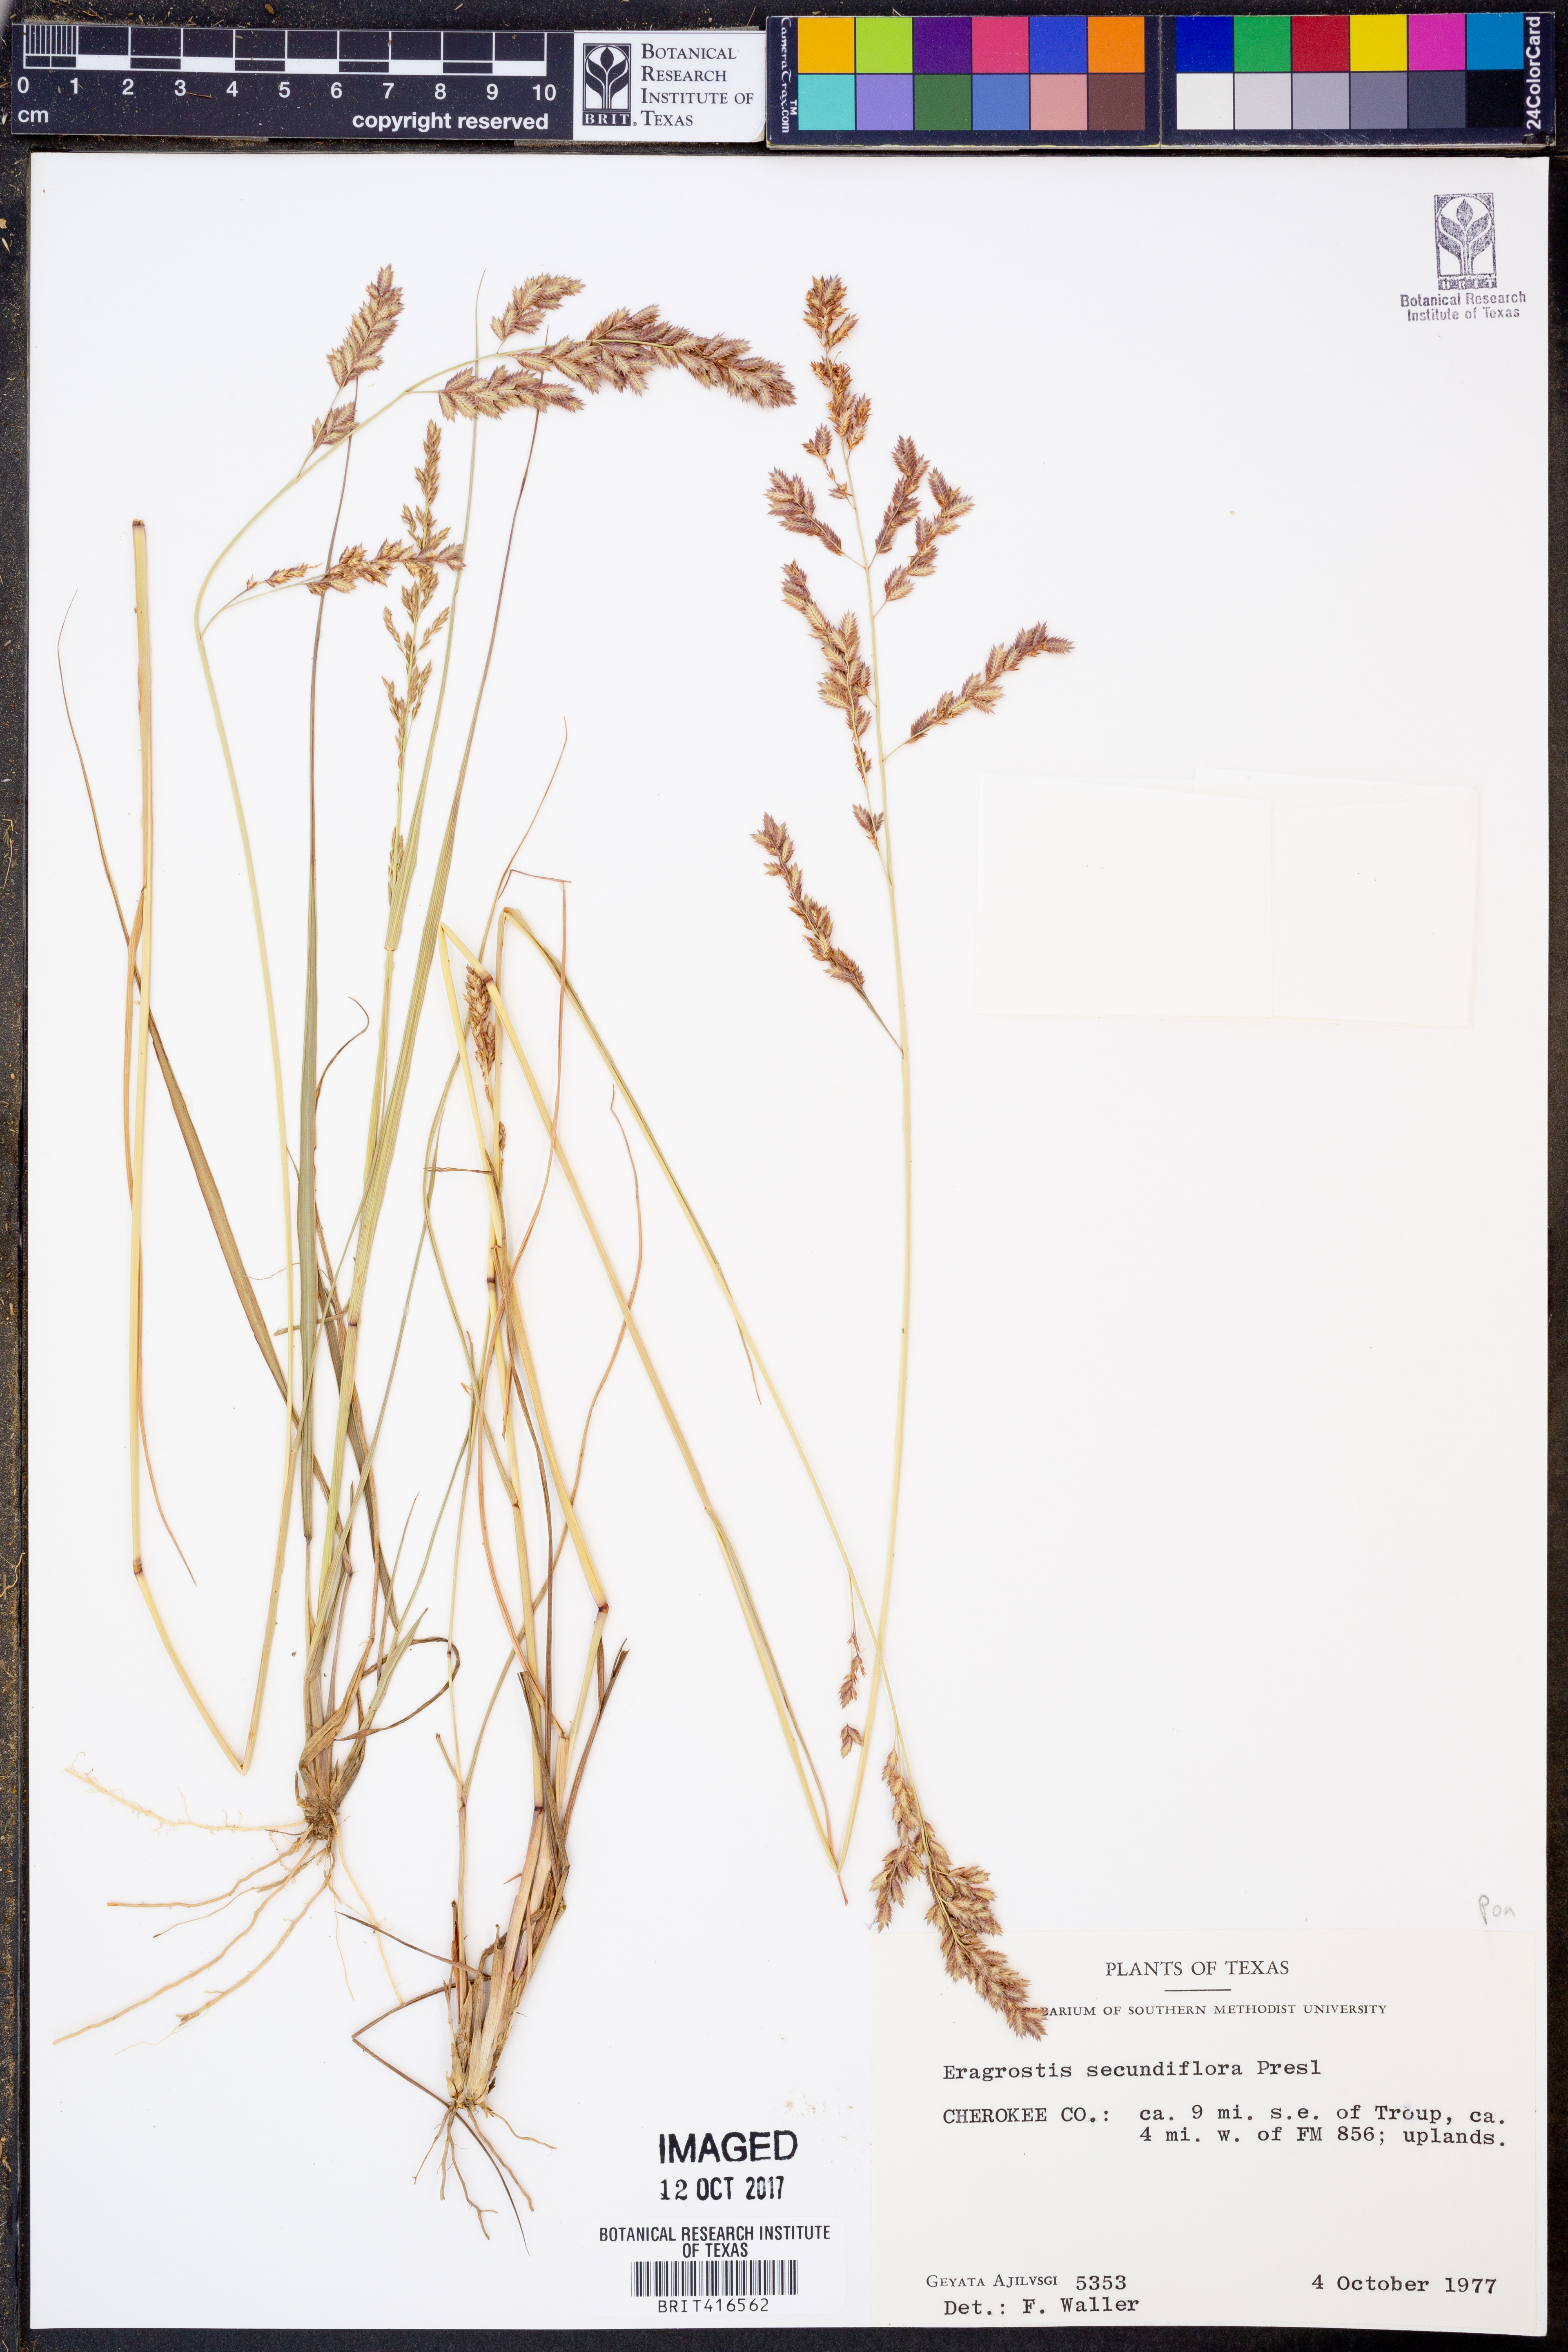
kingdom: Plantae
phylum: Tracheophyta
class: Liliopsida
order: Poales
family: Poaceae
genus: Eragrostis
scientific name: Eragrostis secundiflora
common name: Red love grass
